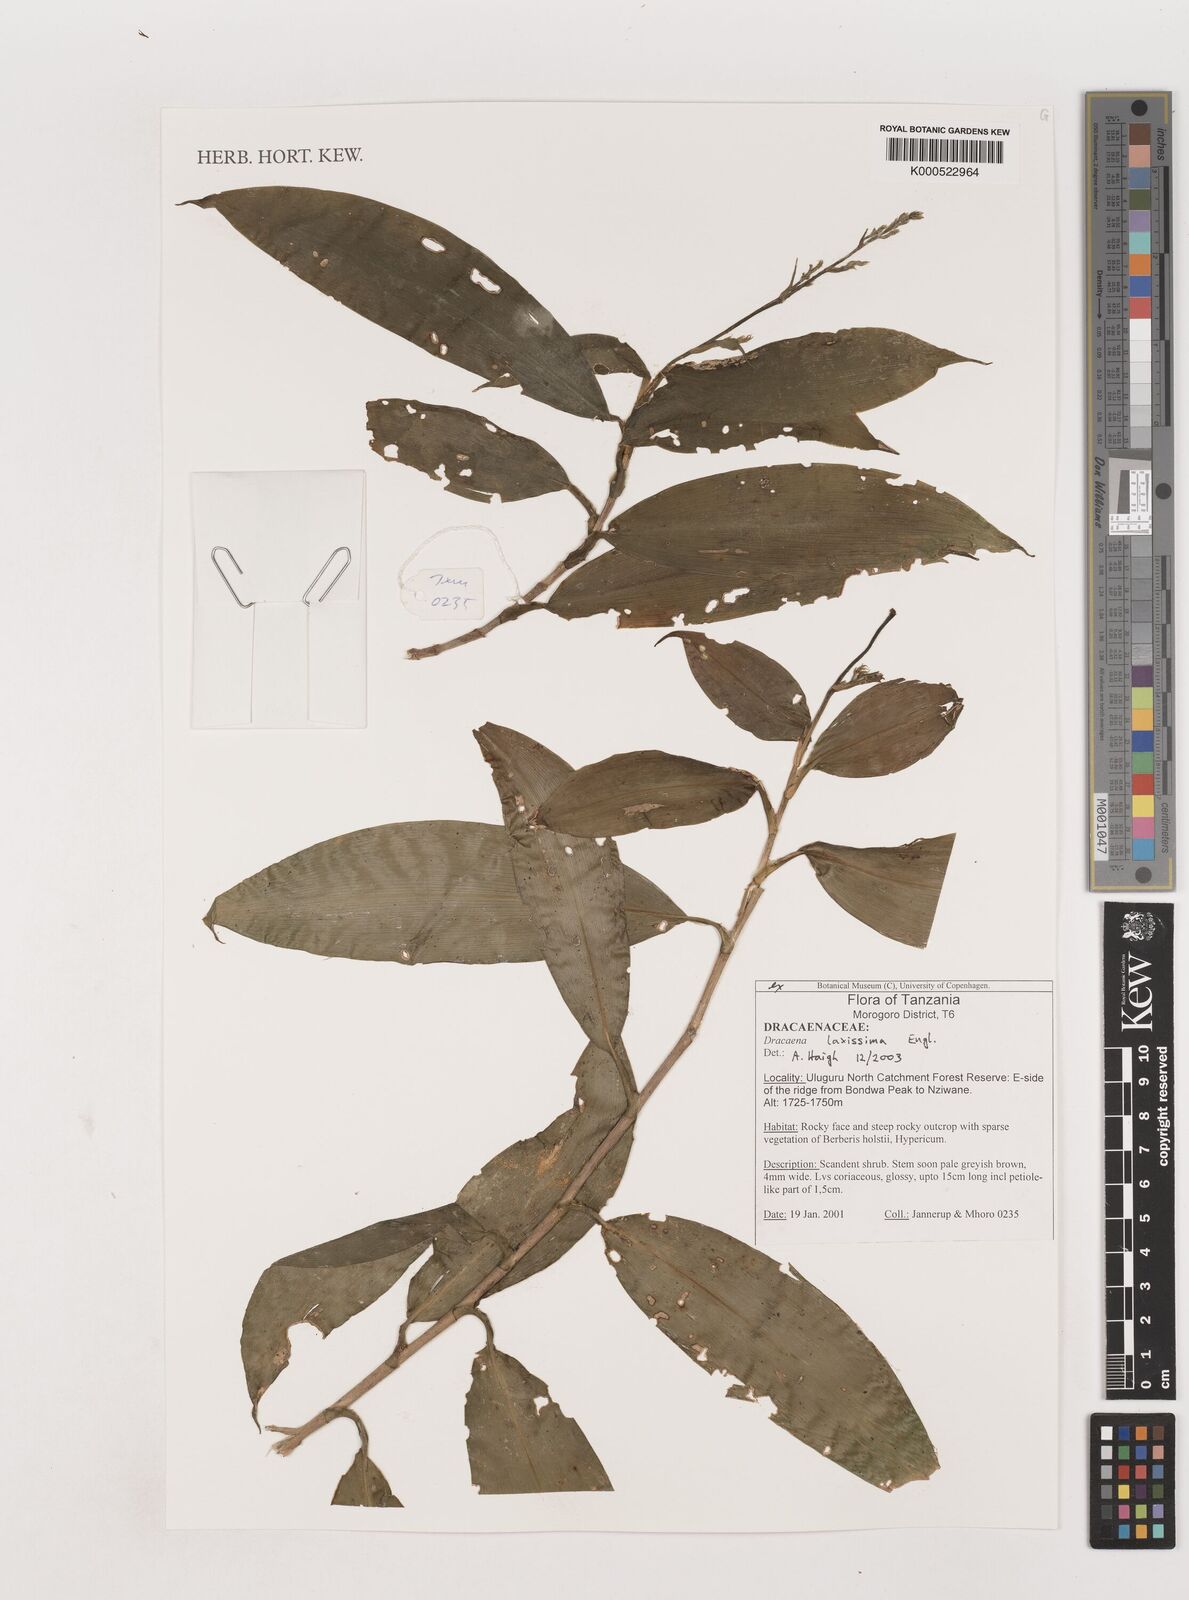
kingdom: Plantae
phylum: Tracheophyta
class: Liliopsida
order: Asparagales
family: Asparagaceae
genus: Dracaena
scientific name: Dracaena laxissima
